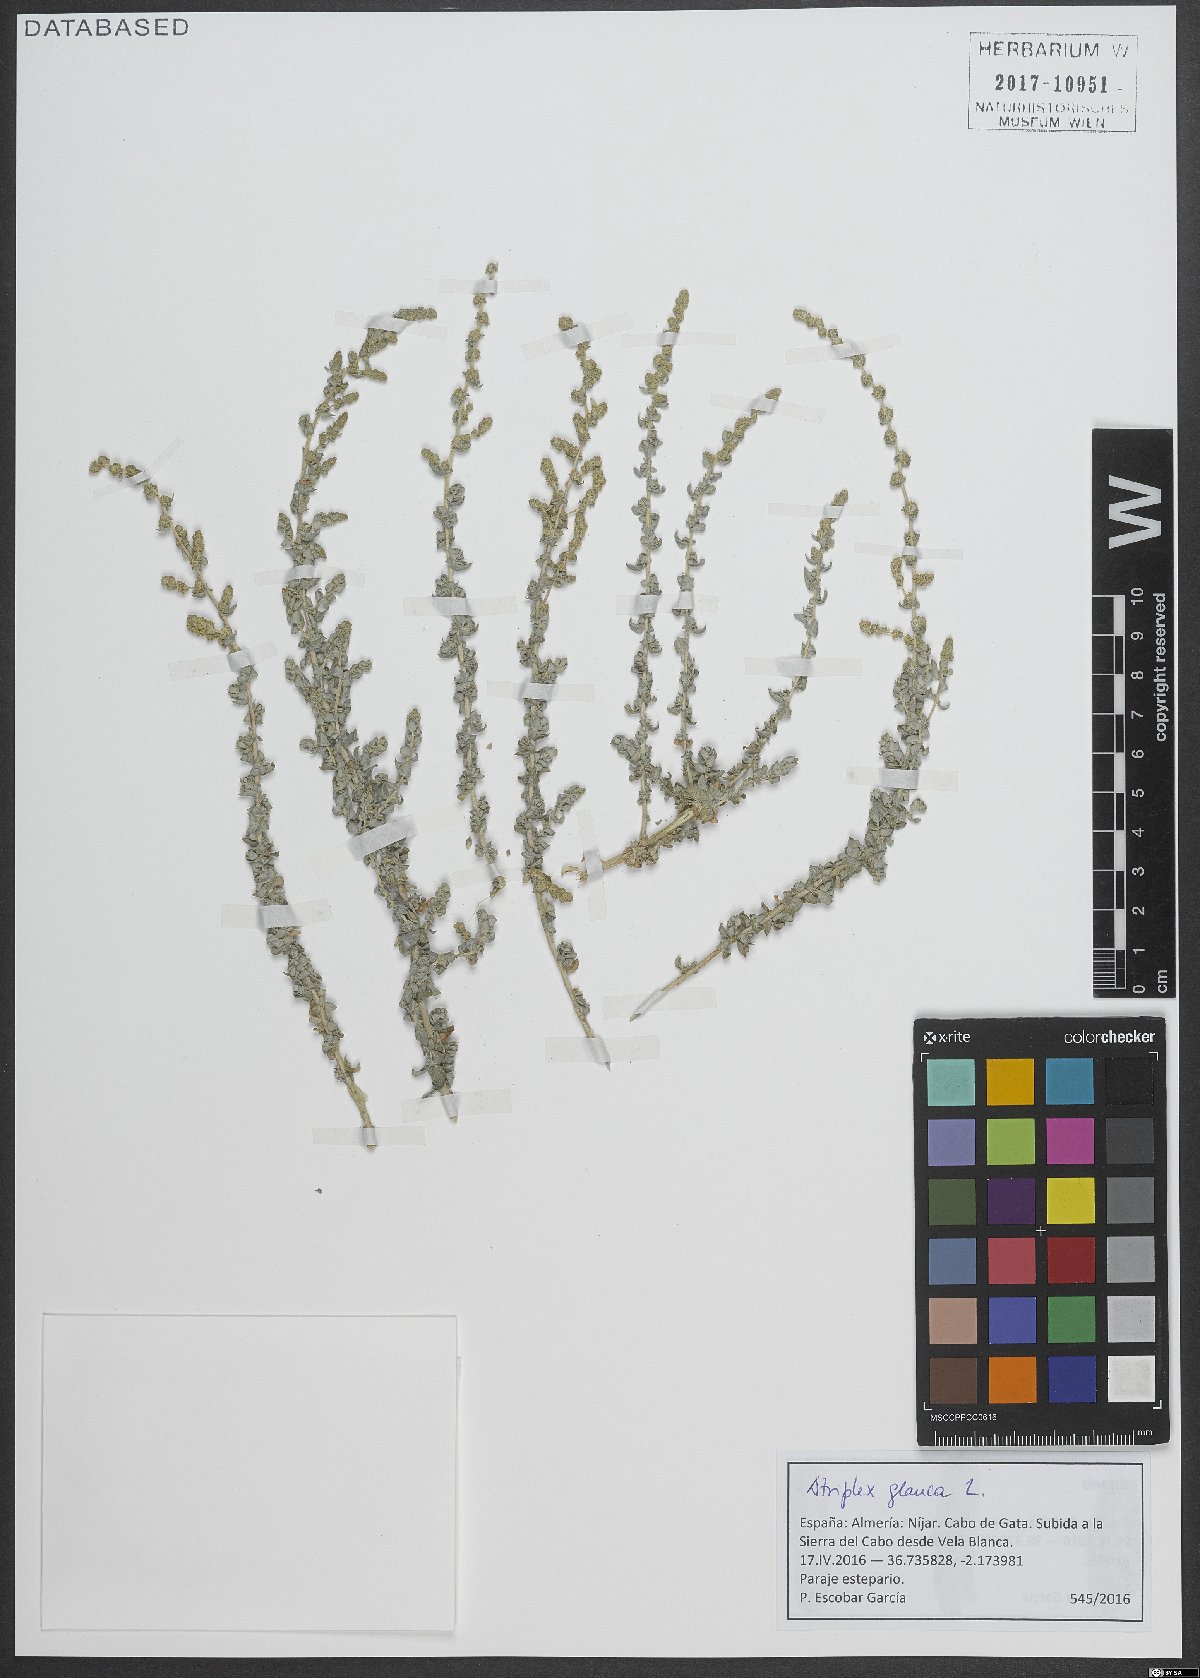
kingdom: Plantae
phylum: Tracheophyta
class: Magnoliopsida
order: Caryophyllales
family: Amaranthaceae
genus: Atriplex
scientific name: Atriplex glauca
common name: Waxy saltbush
